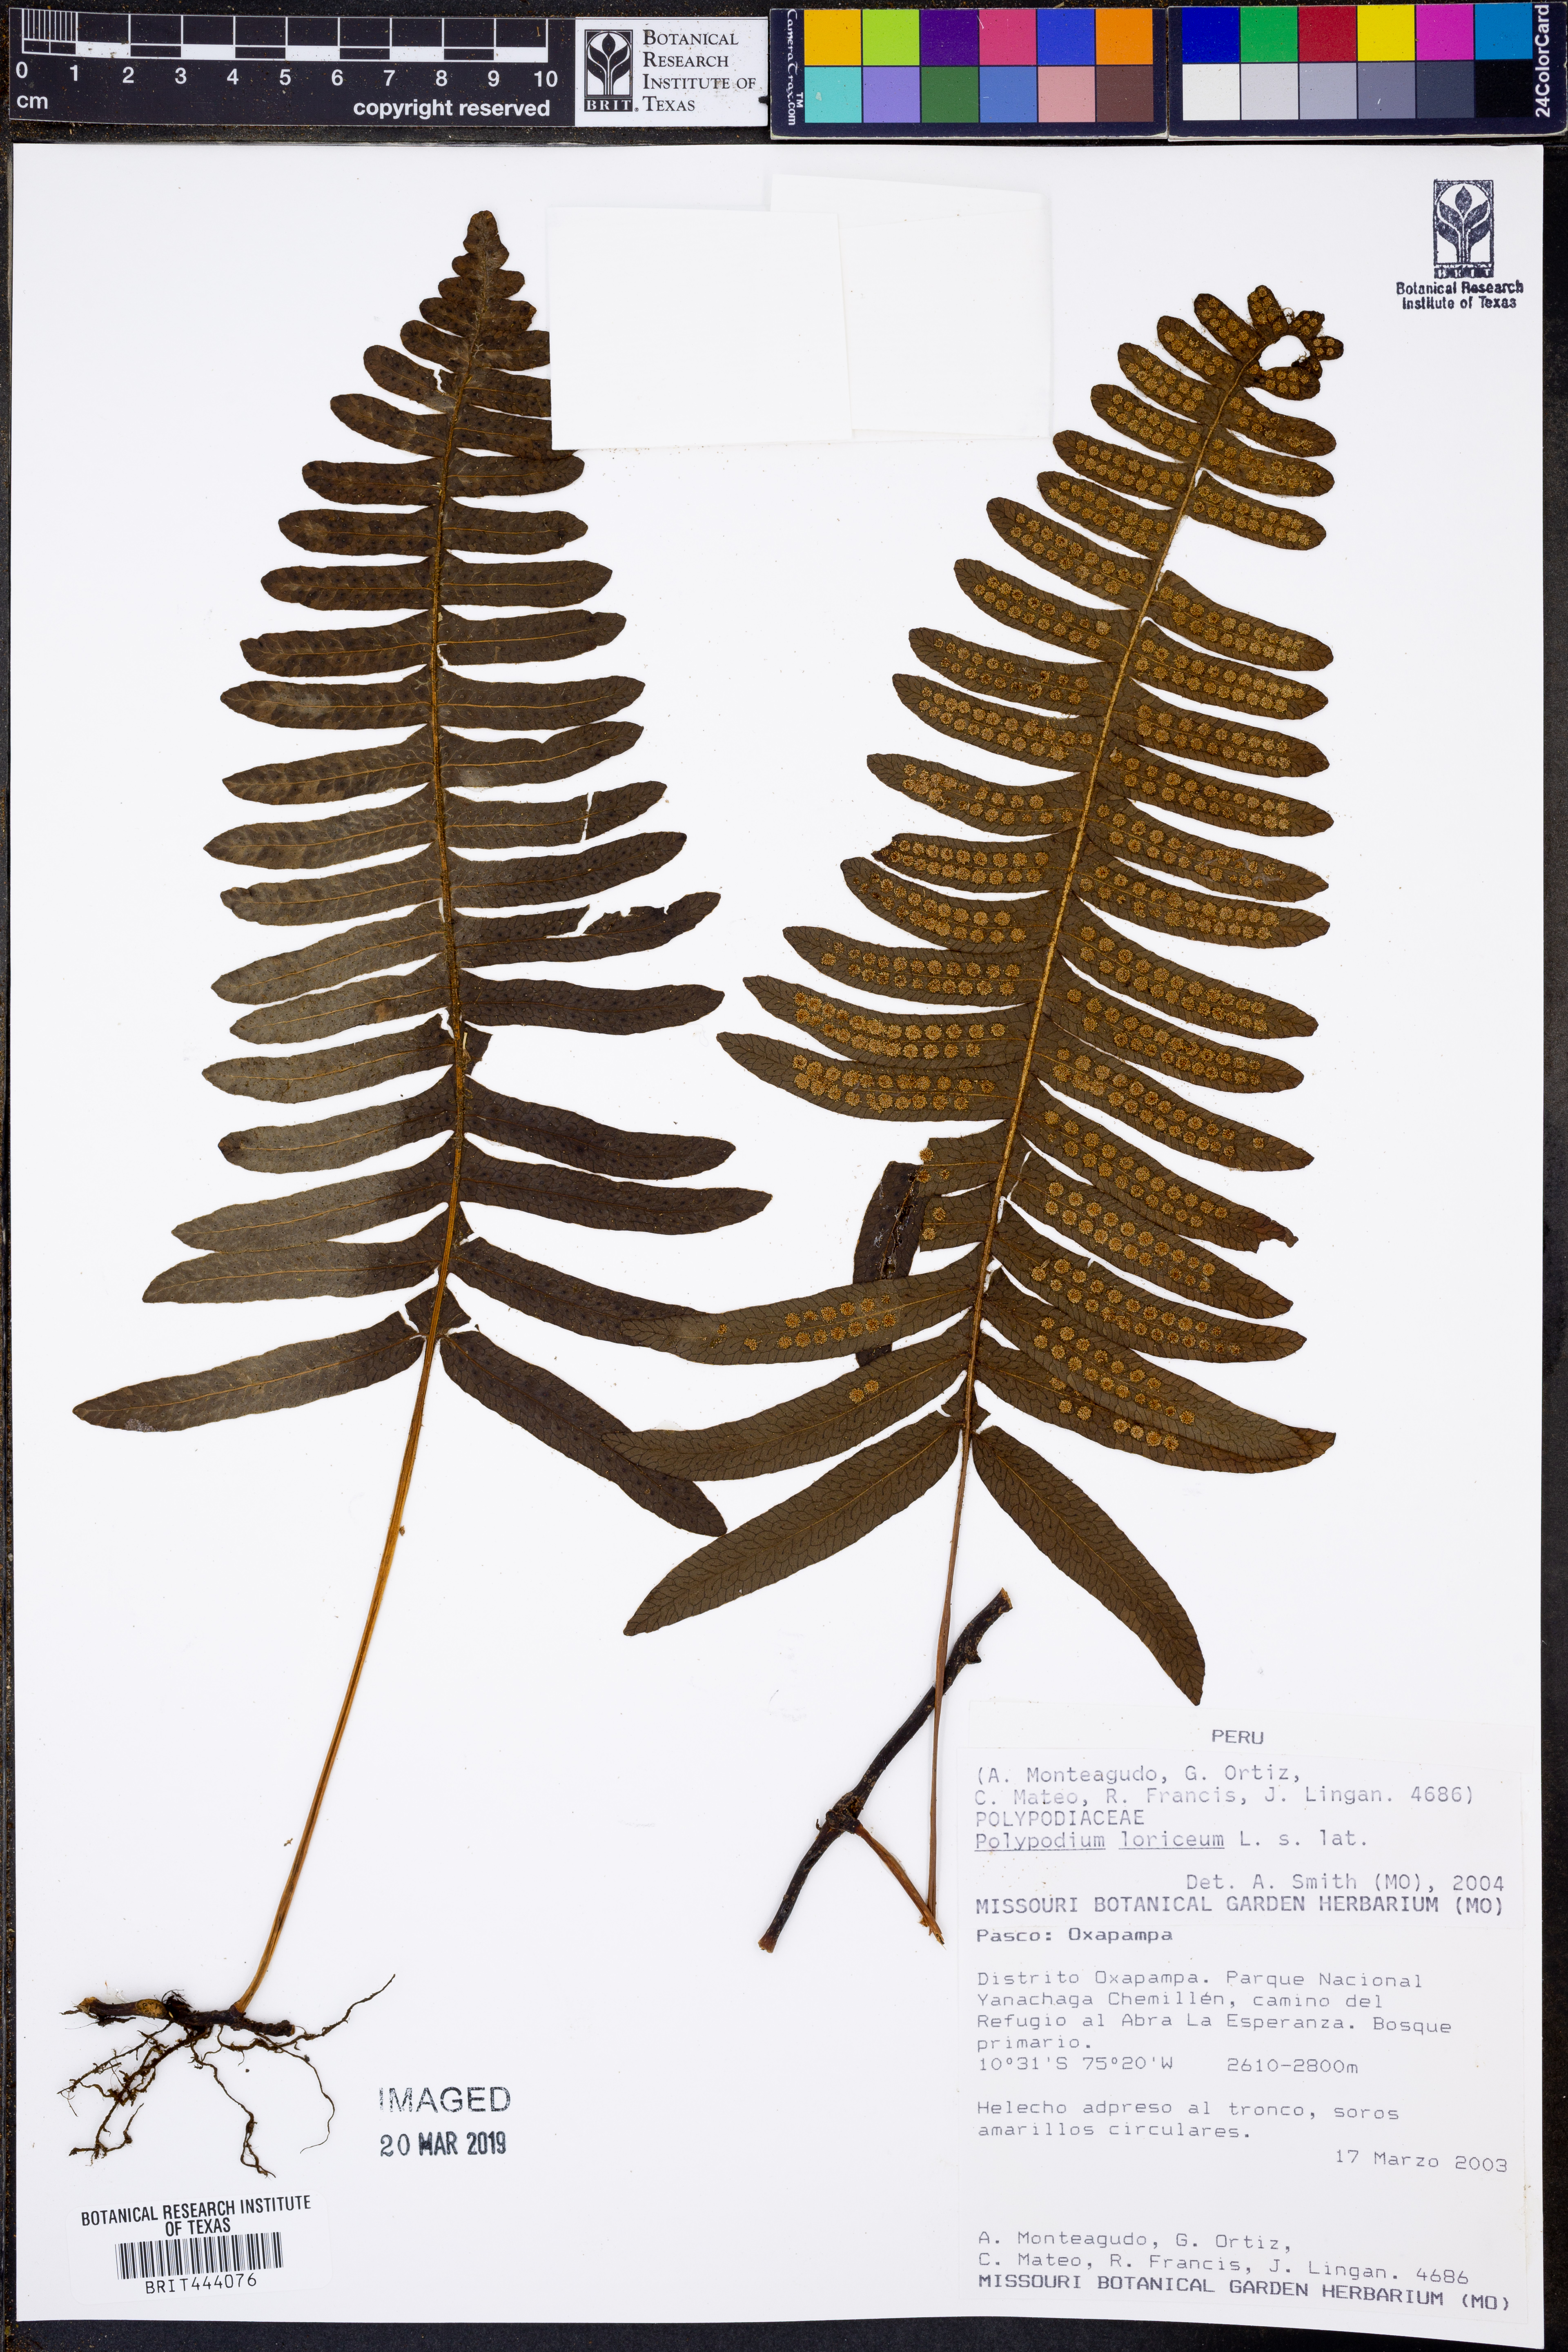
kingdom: Plantae
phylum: Tracheophyta
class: Polypodiopsida
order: Polypodiales
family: Polypodiaceae
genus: Serpocaulon
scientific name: Serpocaulon loriceum
